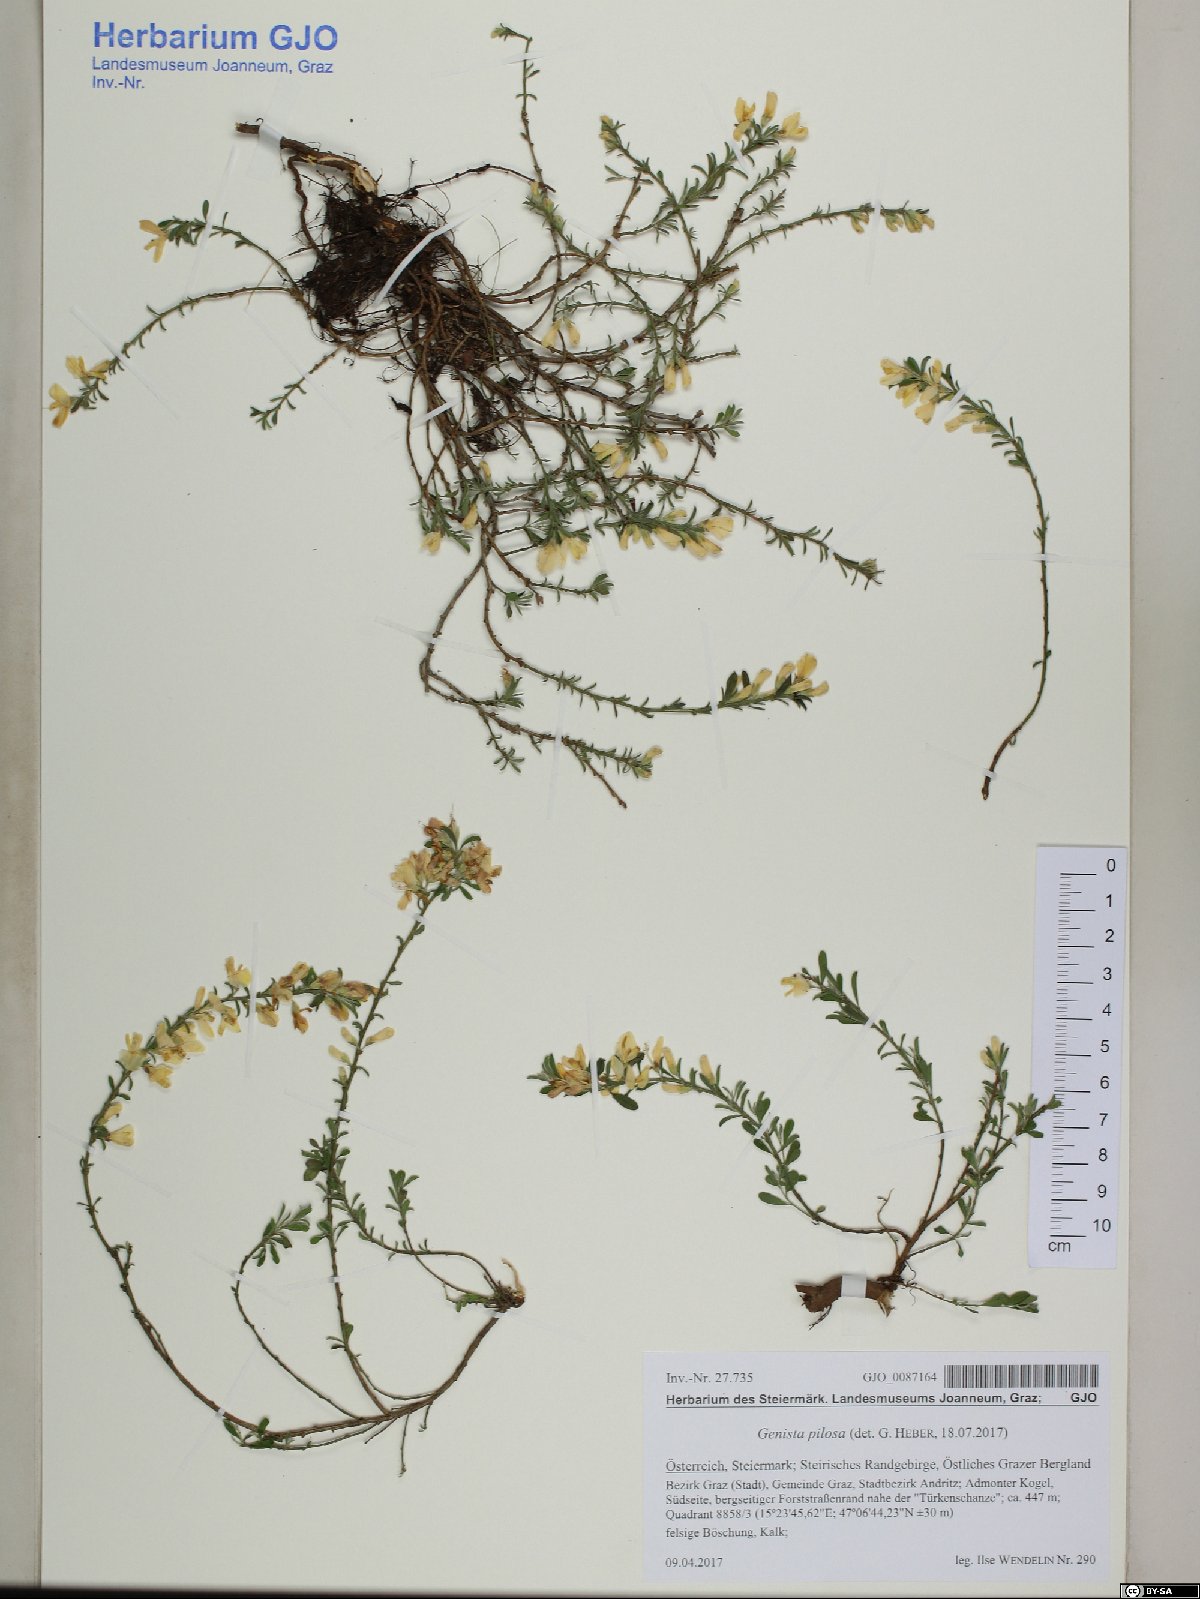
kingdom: Plantae
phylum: Tracheophyta
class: Magnoliopsida
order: Fabales
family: Fabaceae
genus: Genista
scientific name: Genista pilosa
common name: Hairy greenweed
